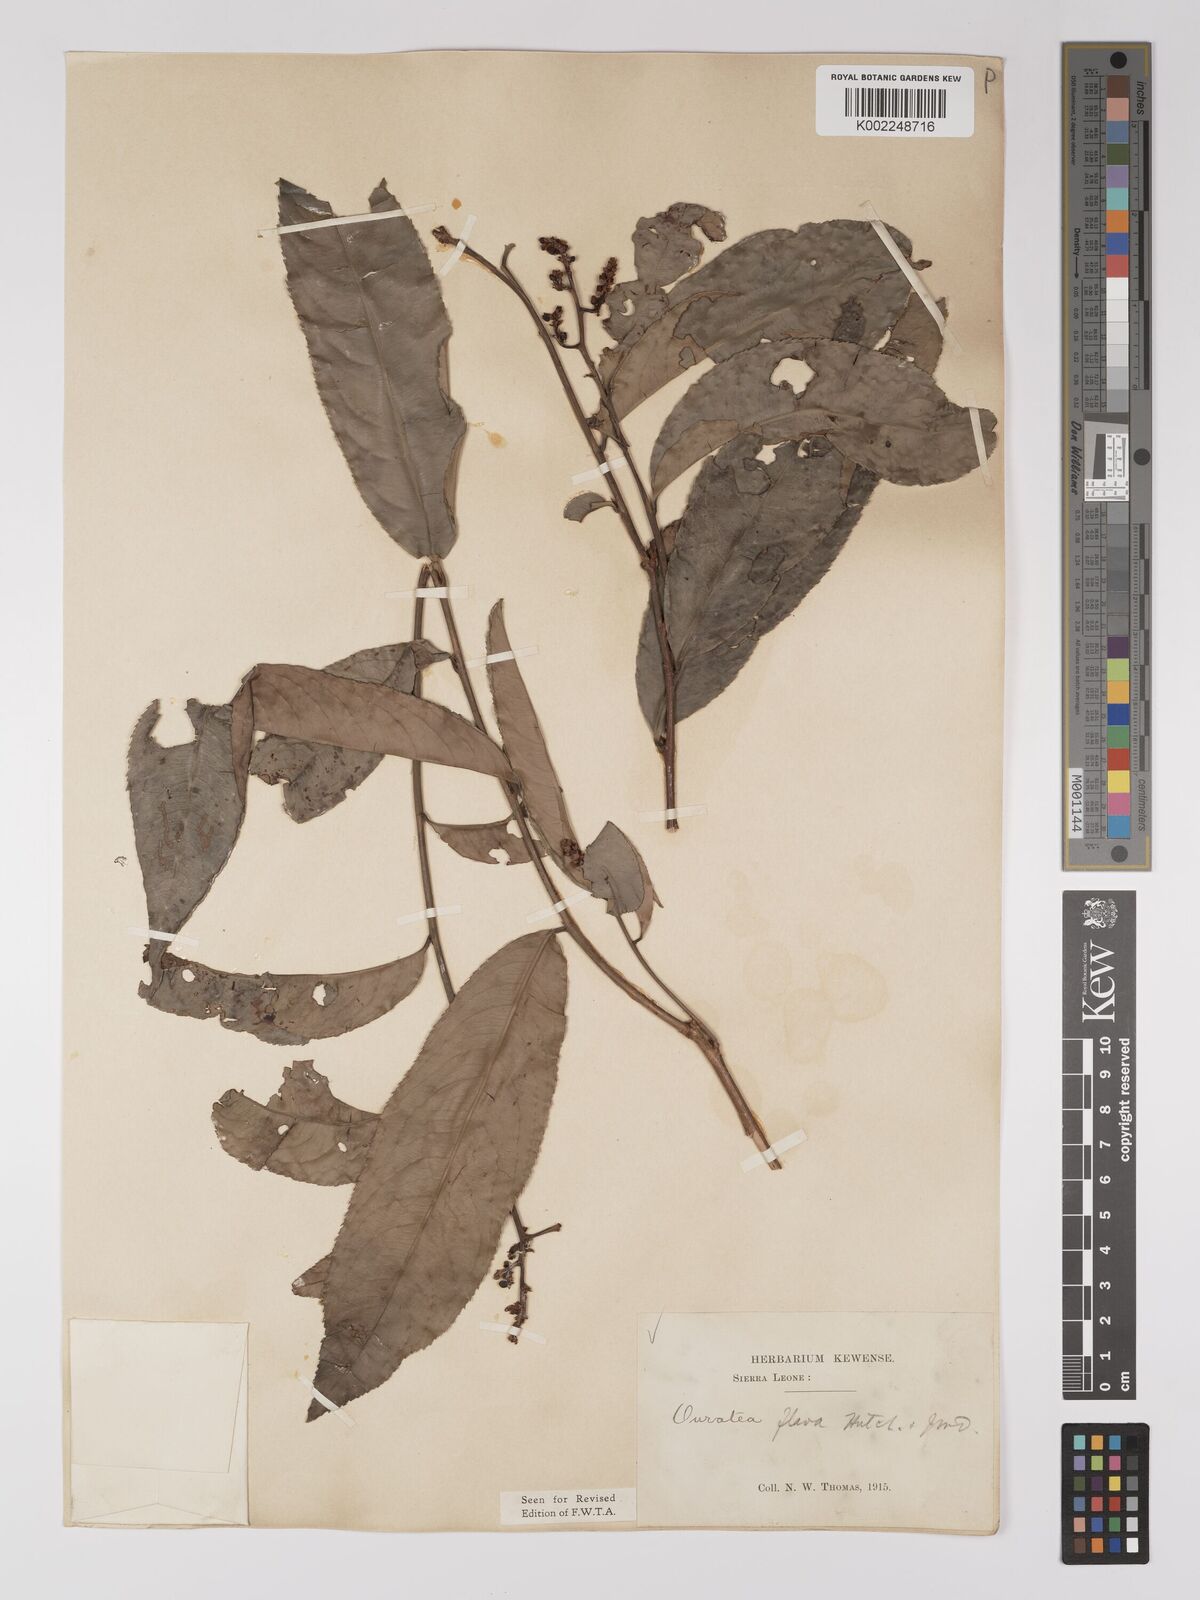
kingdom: Plantae
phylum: Tracheophyta
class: Magnoliopsida
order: Malpighiales
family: Ochnaceae
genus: Campylospermum
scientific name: Campylospermum flavum
